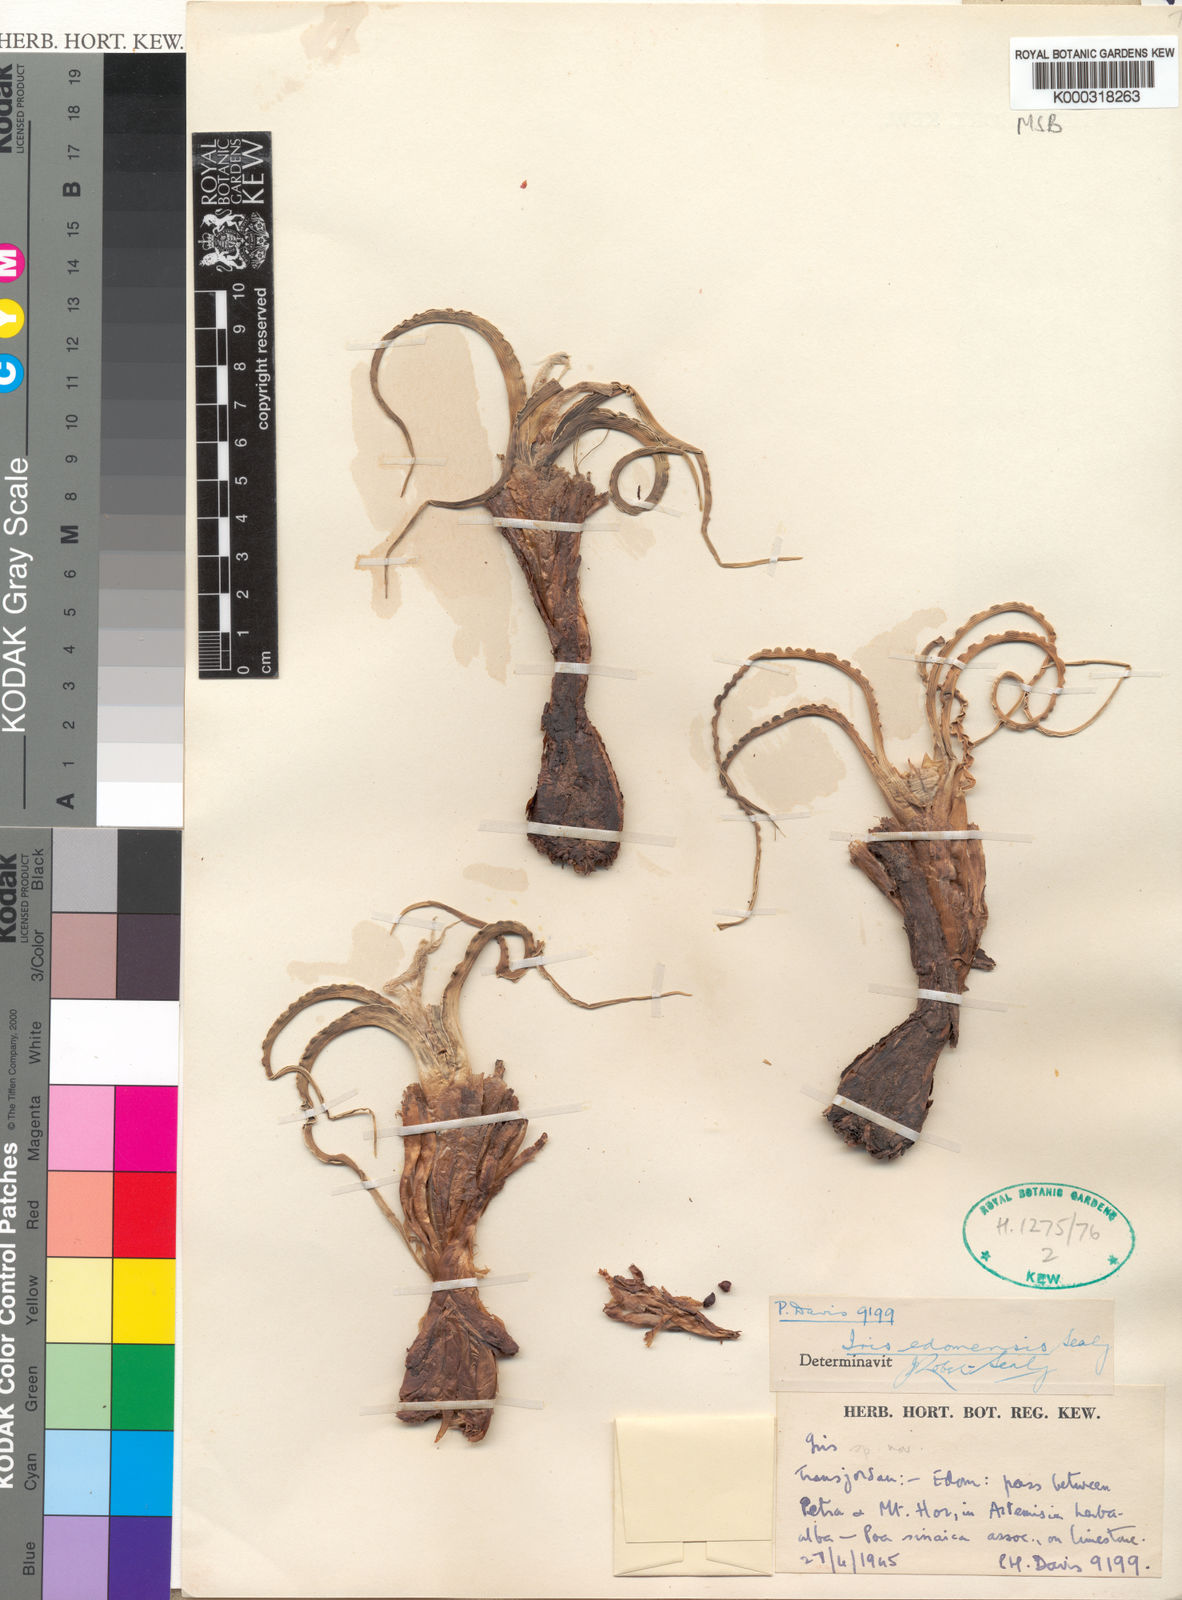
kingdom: Plantae
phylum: Tracheophyta
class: Liliopsida
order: Asparagales
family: Iridaceae
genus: Iris
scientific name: Iris edomensis
